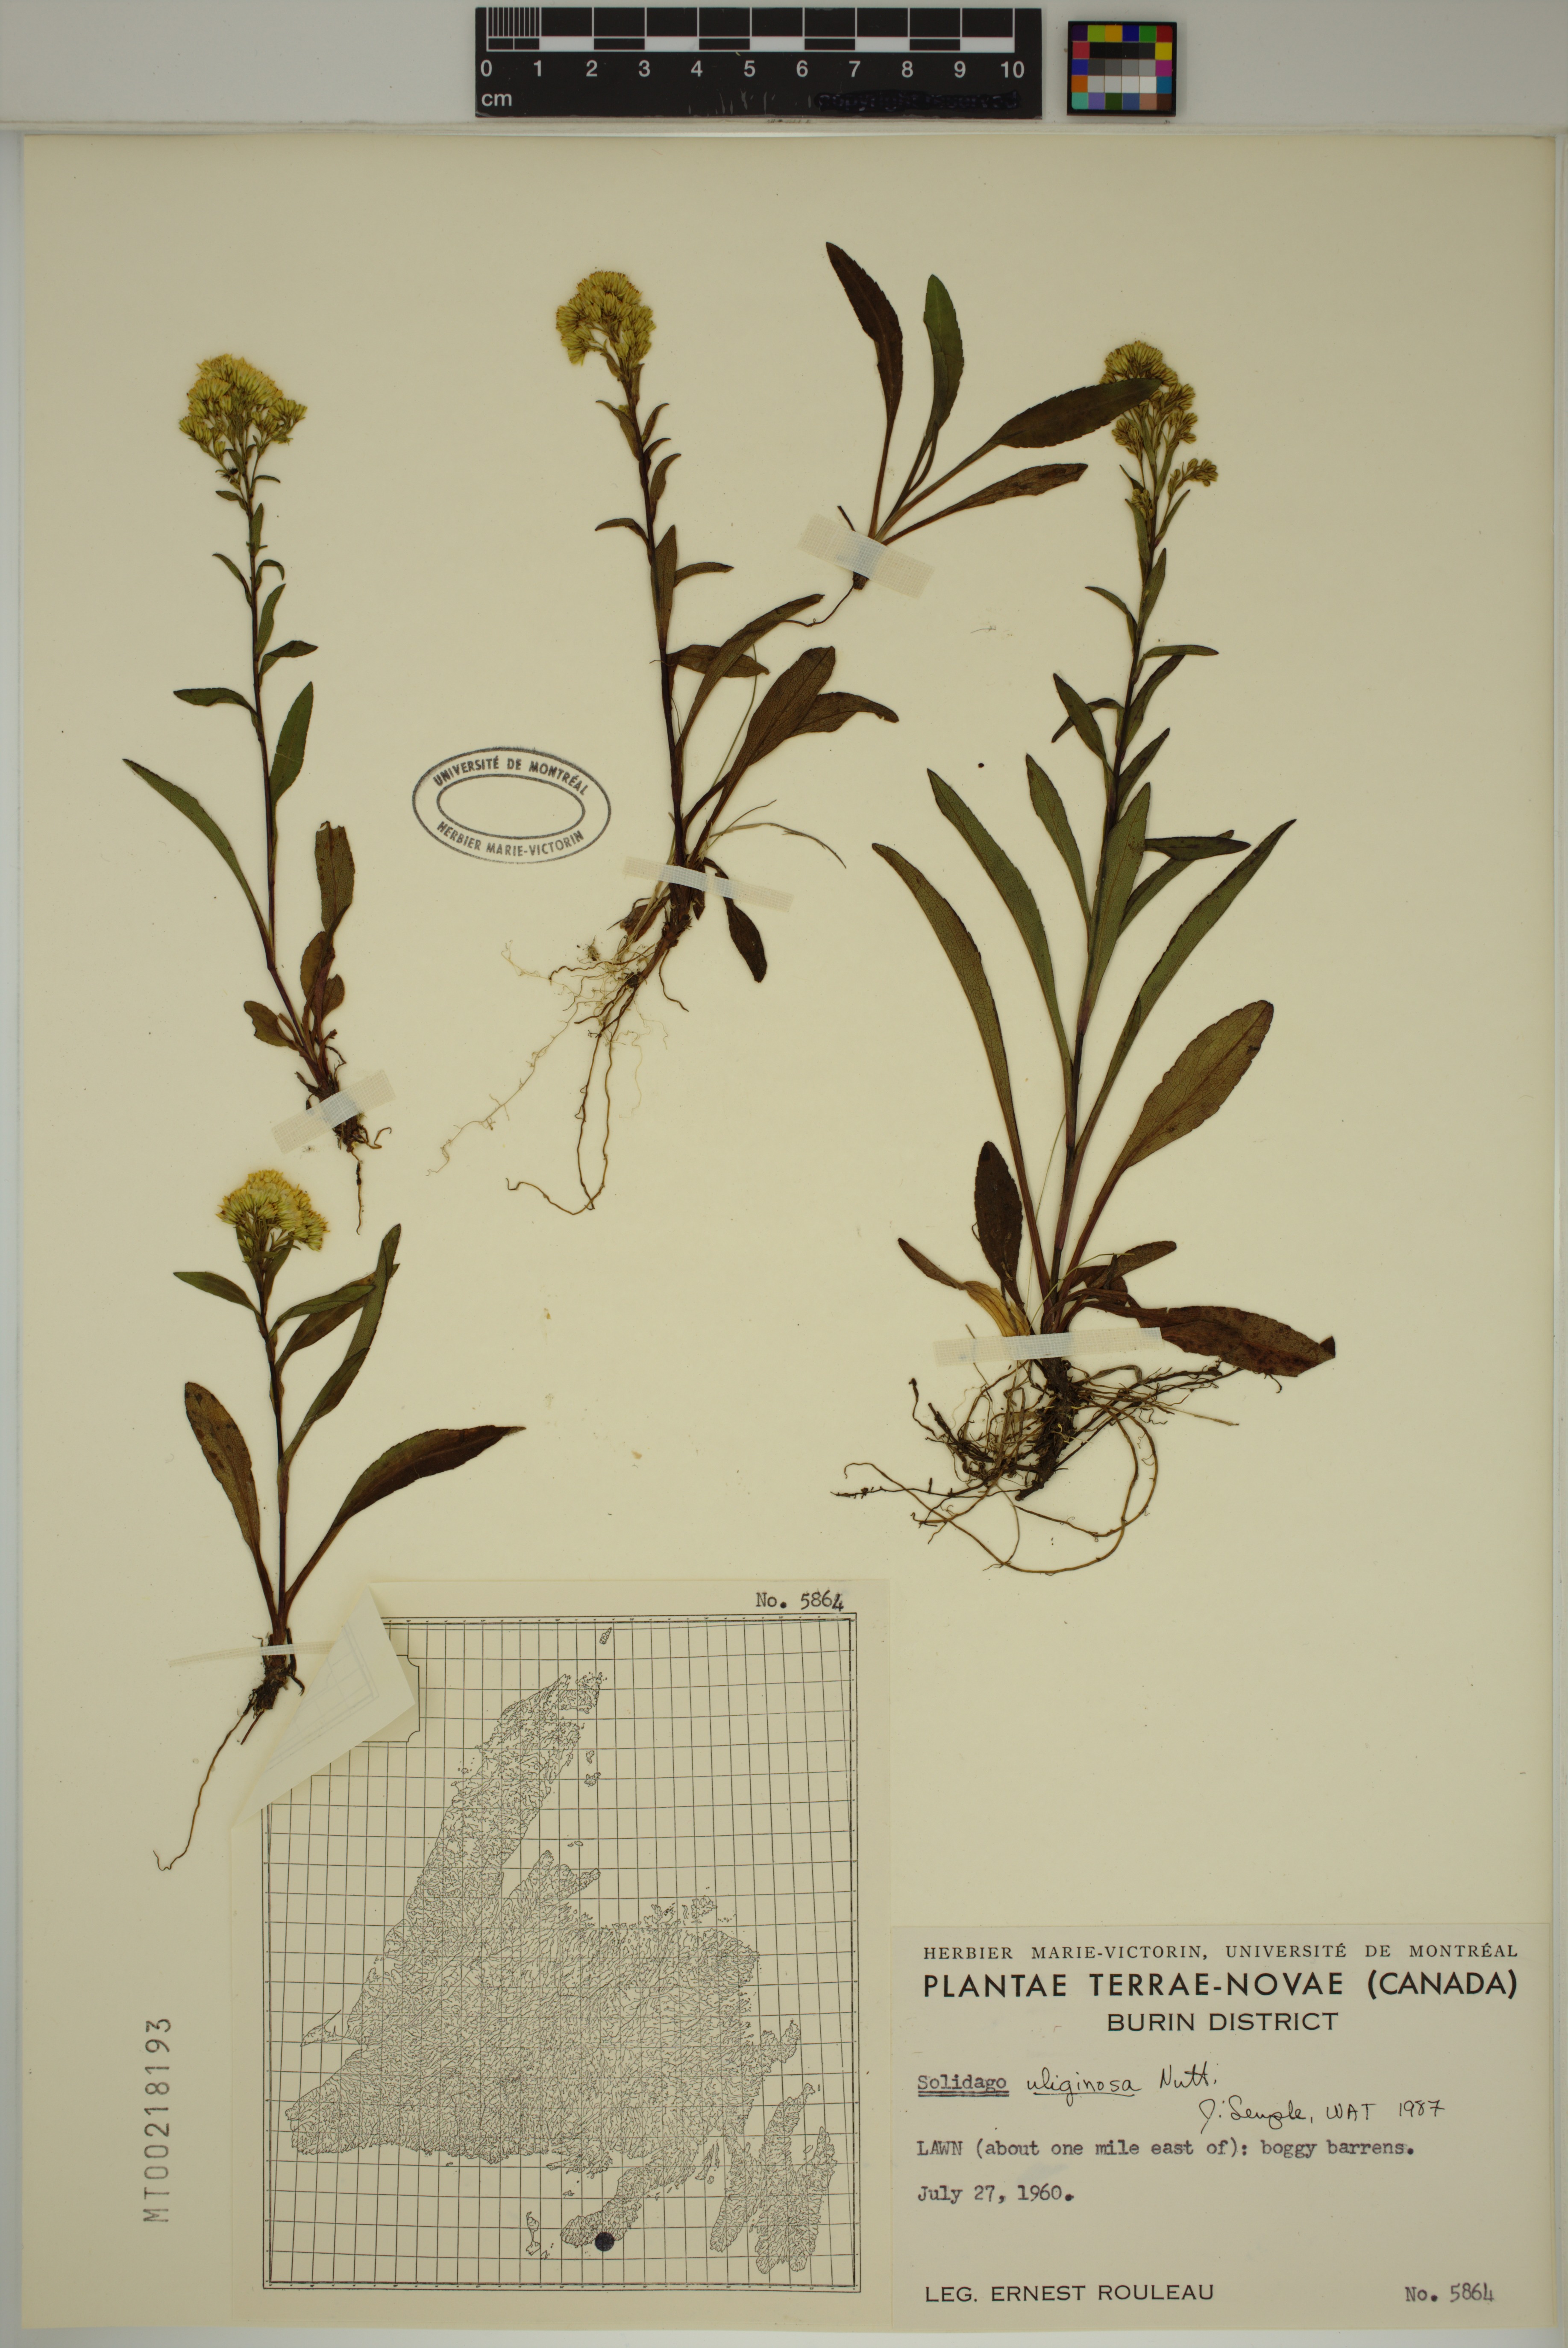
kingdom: Plantae
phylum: Tracheophyta
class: Magnoliopsida
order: Asterales
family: Asteraceae
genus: Solidago
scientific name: Solidago uliginosa
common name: Bog goldenrod
